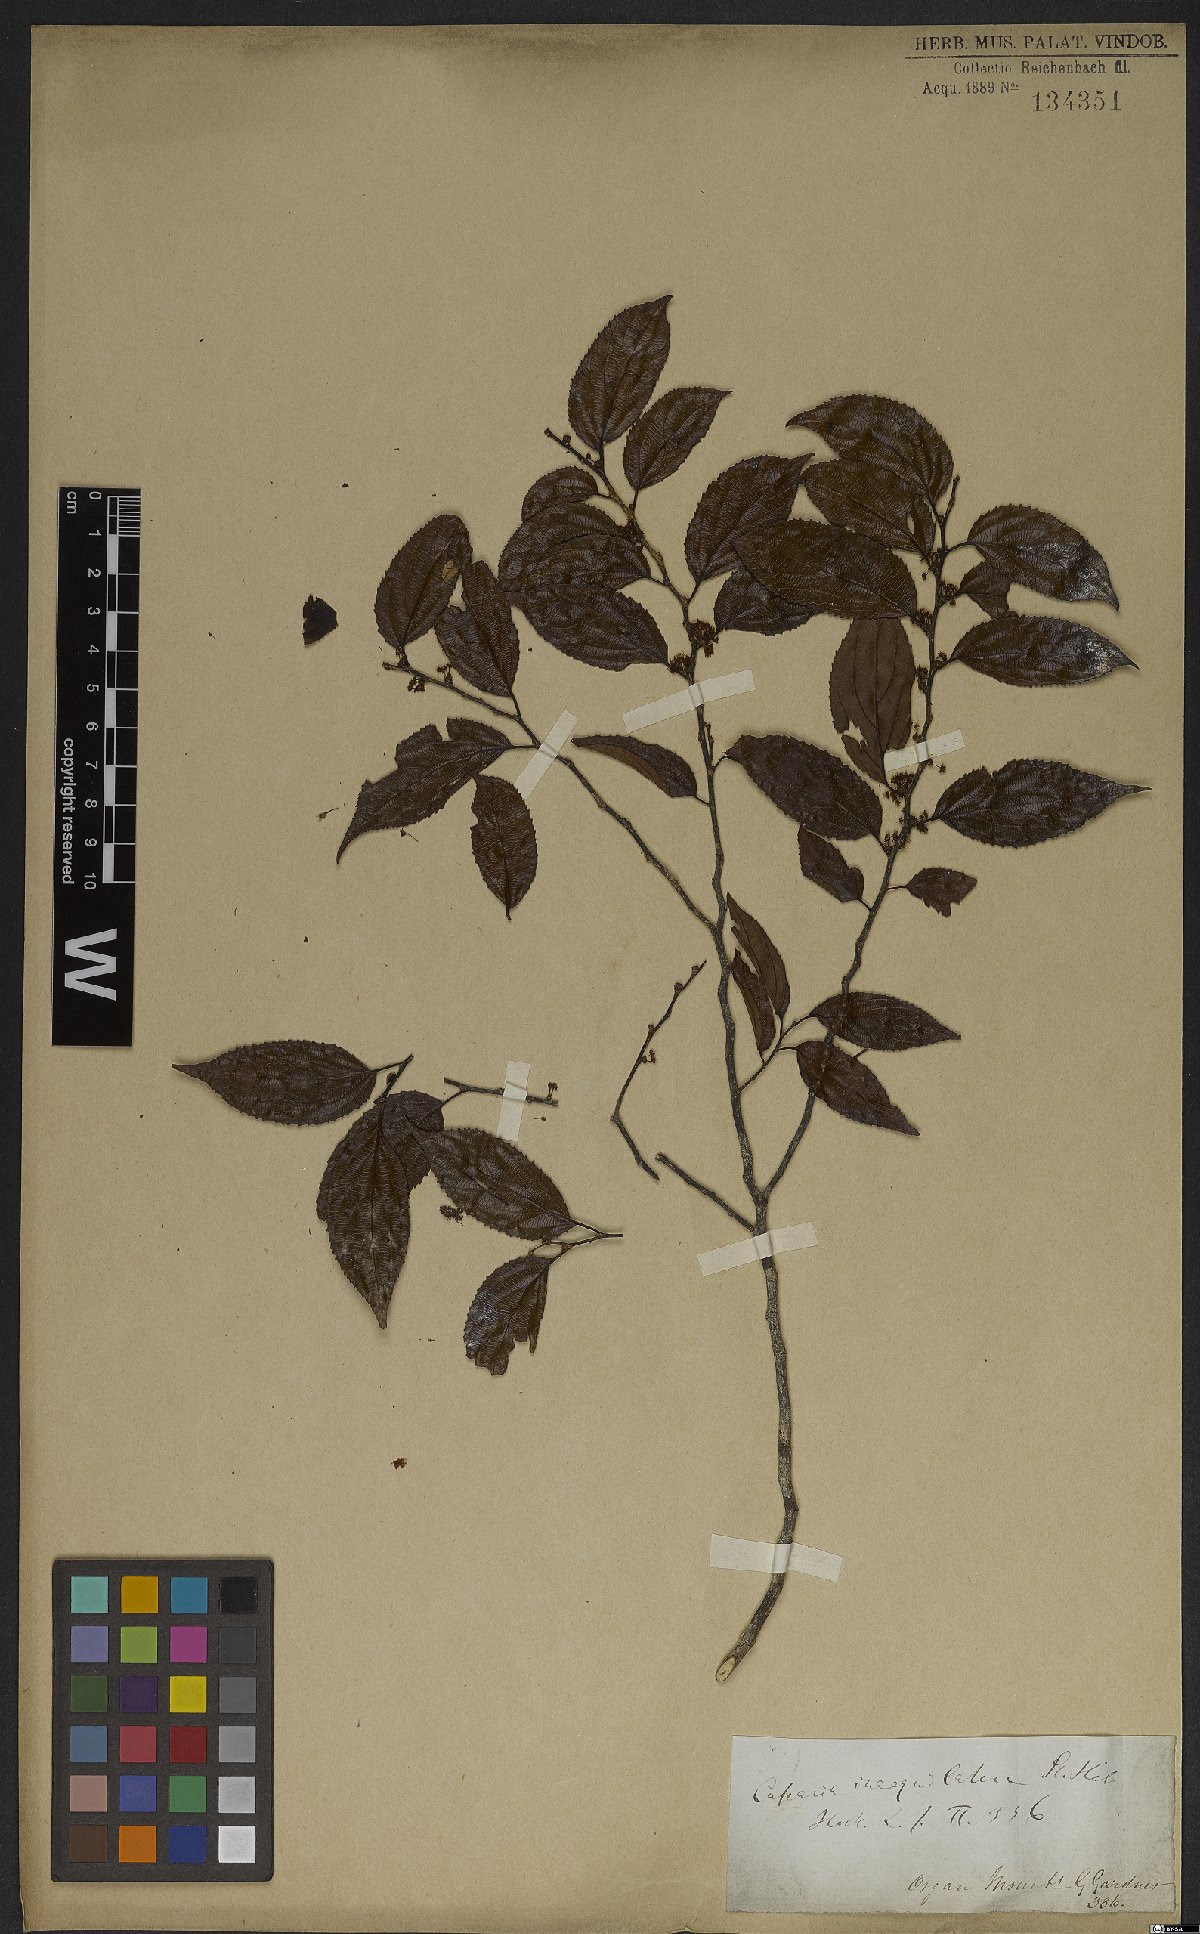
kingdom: Plantae
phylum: Tracheophyta
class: Magnoliopsida
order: Malpighiales
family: Salicaceae
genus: Casearia
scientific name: Casearia obliqua
